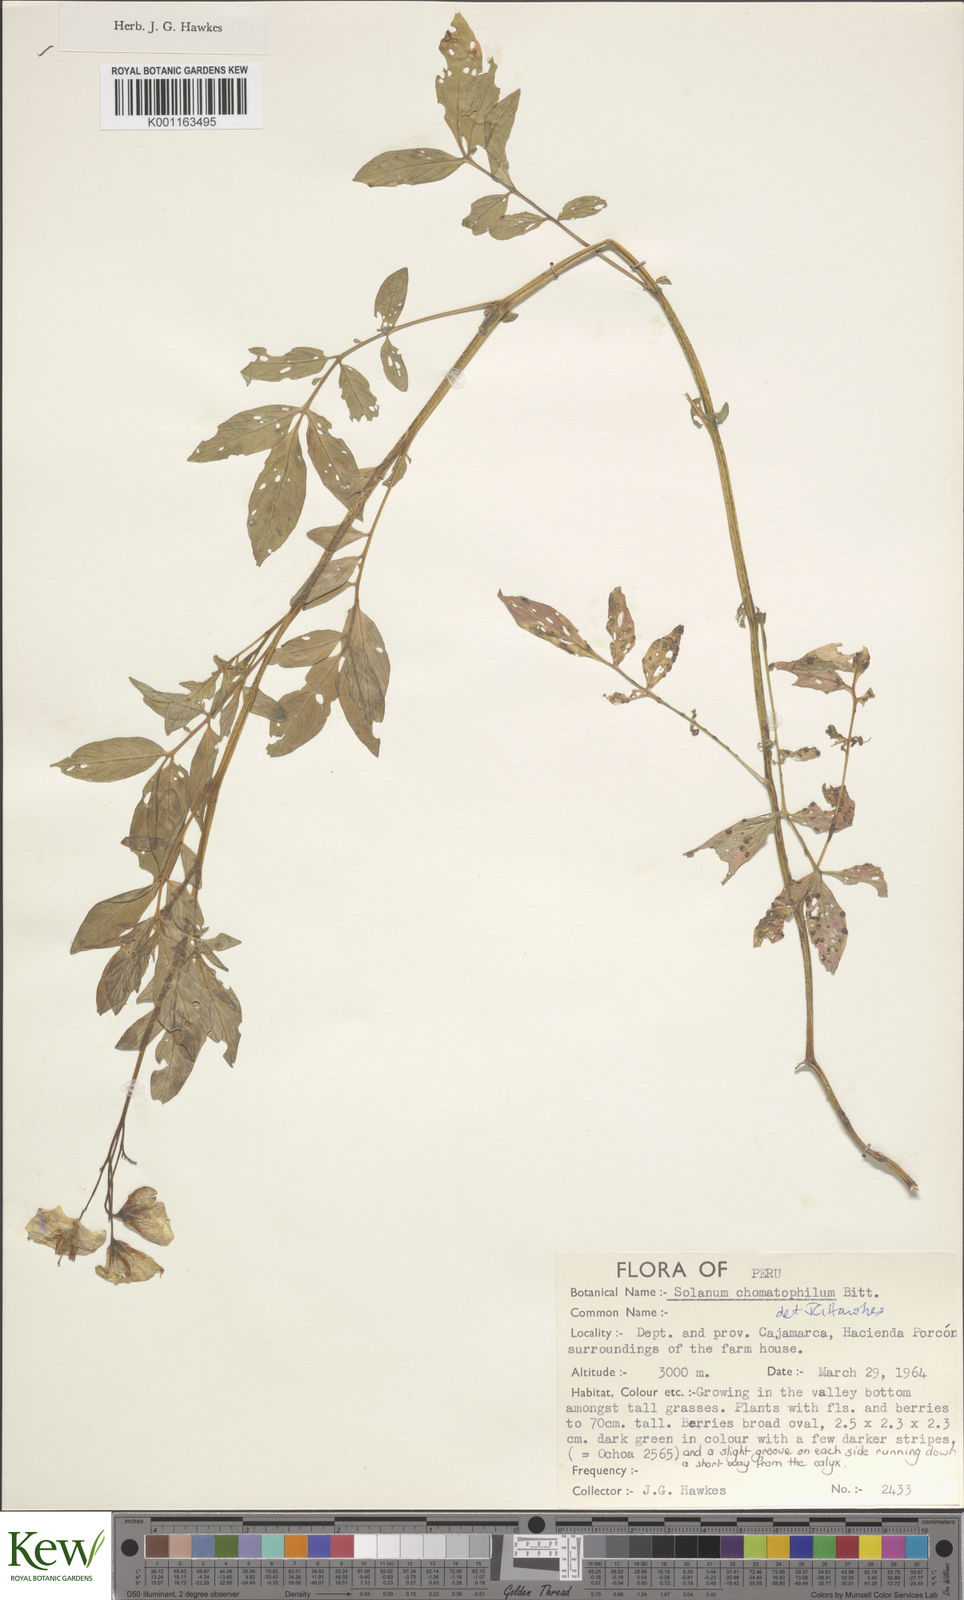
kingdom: Plantae
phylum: Tracheophyta
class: Magnoliopsida
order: Solanales
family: Solanaceae
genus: Solanum
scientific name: Solanum chomatophilum
